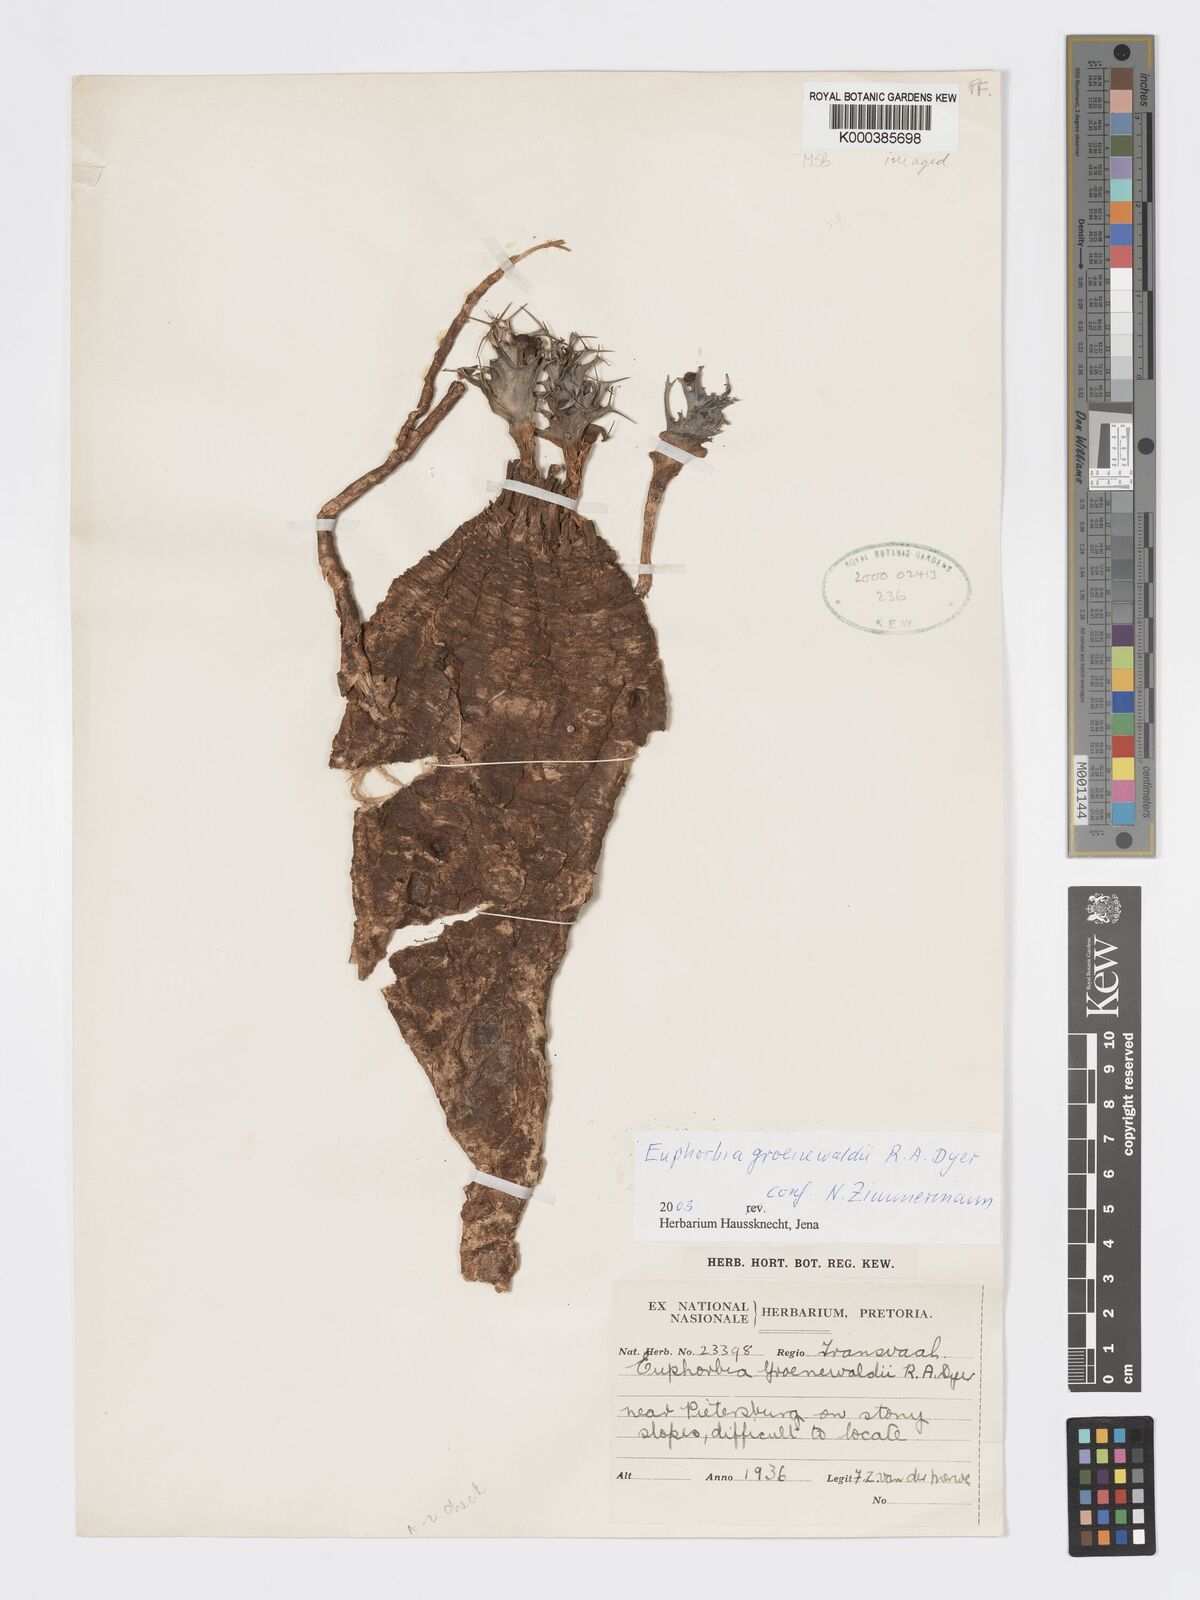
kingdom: Plantae
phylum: Tracheophyta
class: Magnoliopsida
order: Malpighiales
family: Euphorbiaceae
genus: Euphorbia
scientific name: Euphorbia groenewaldii
